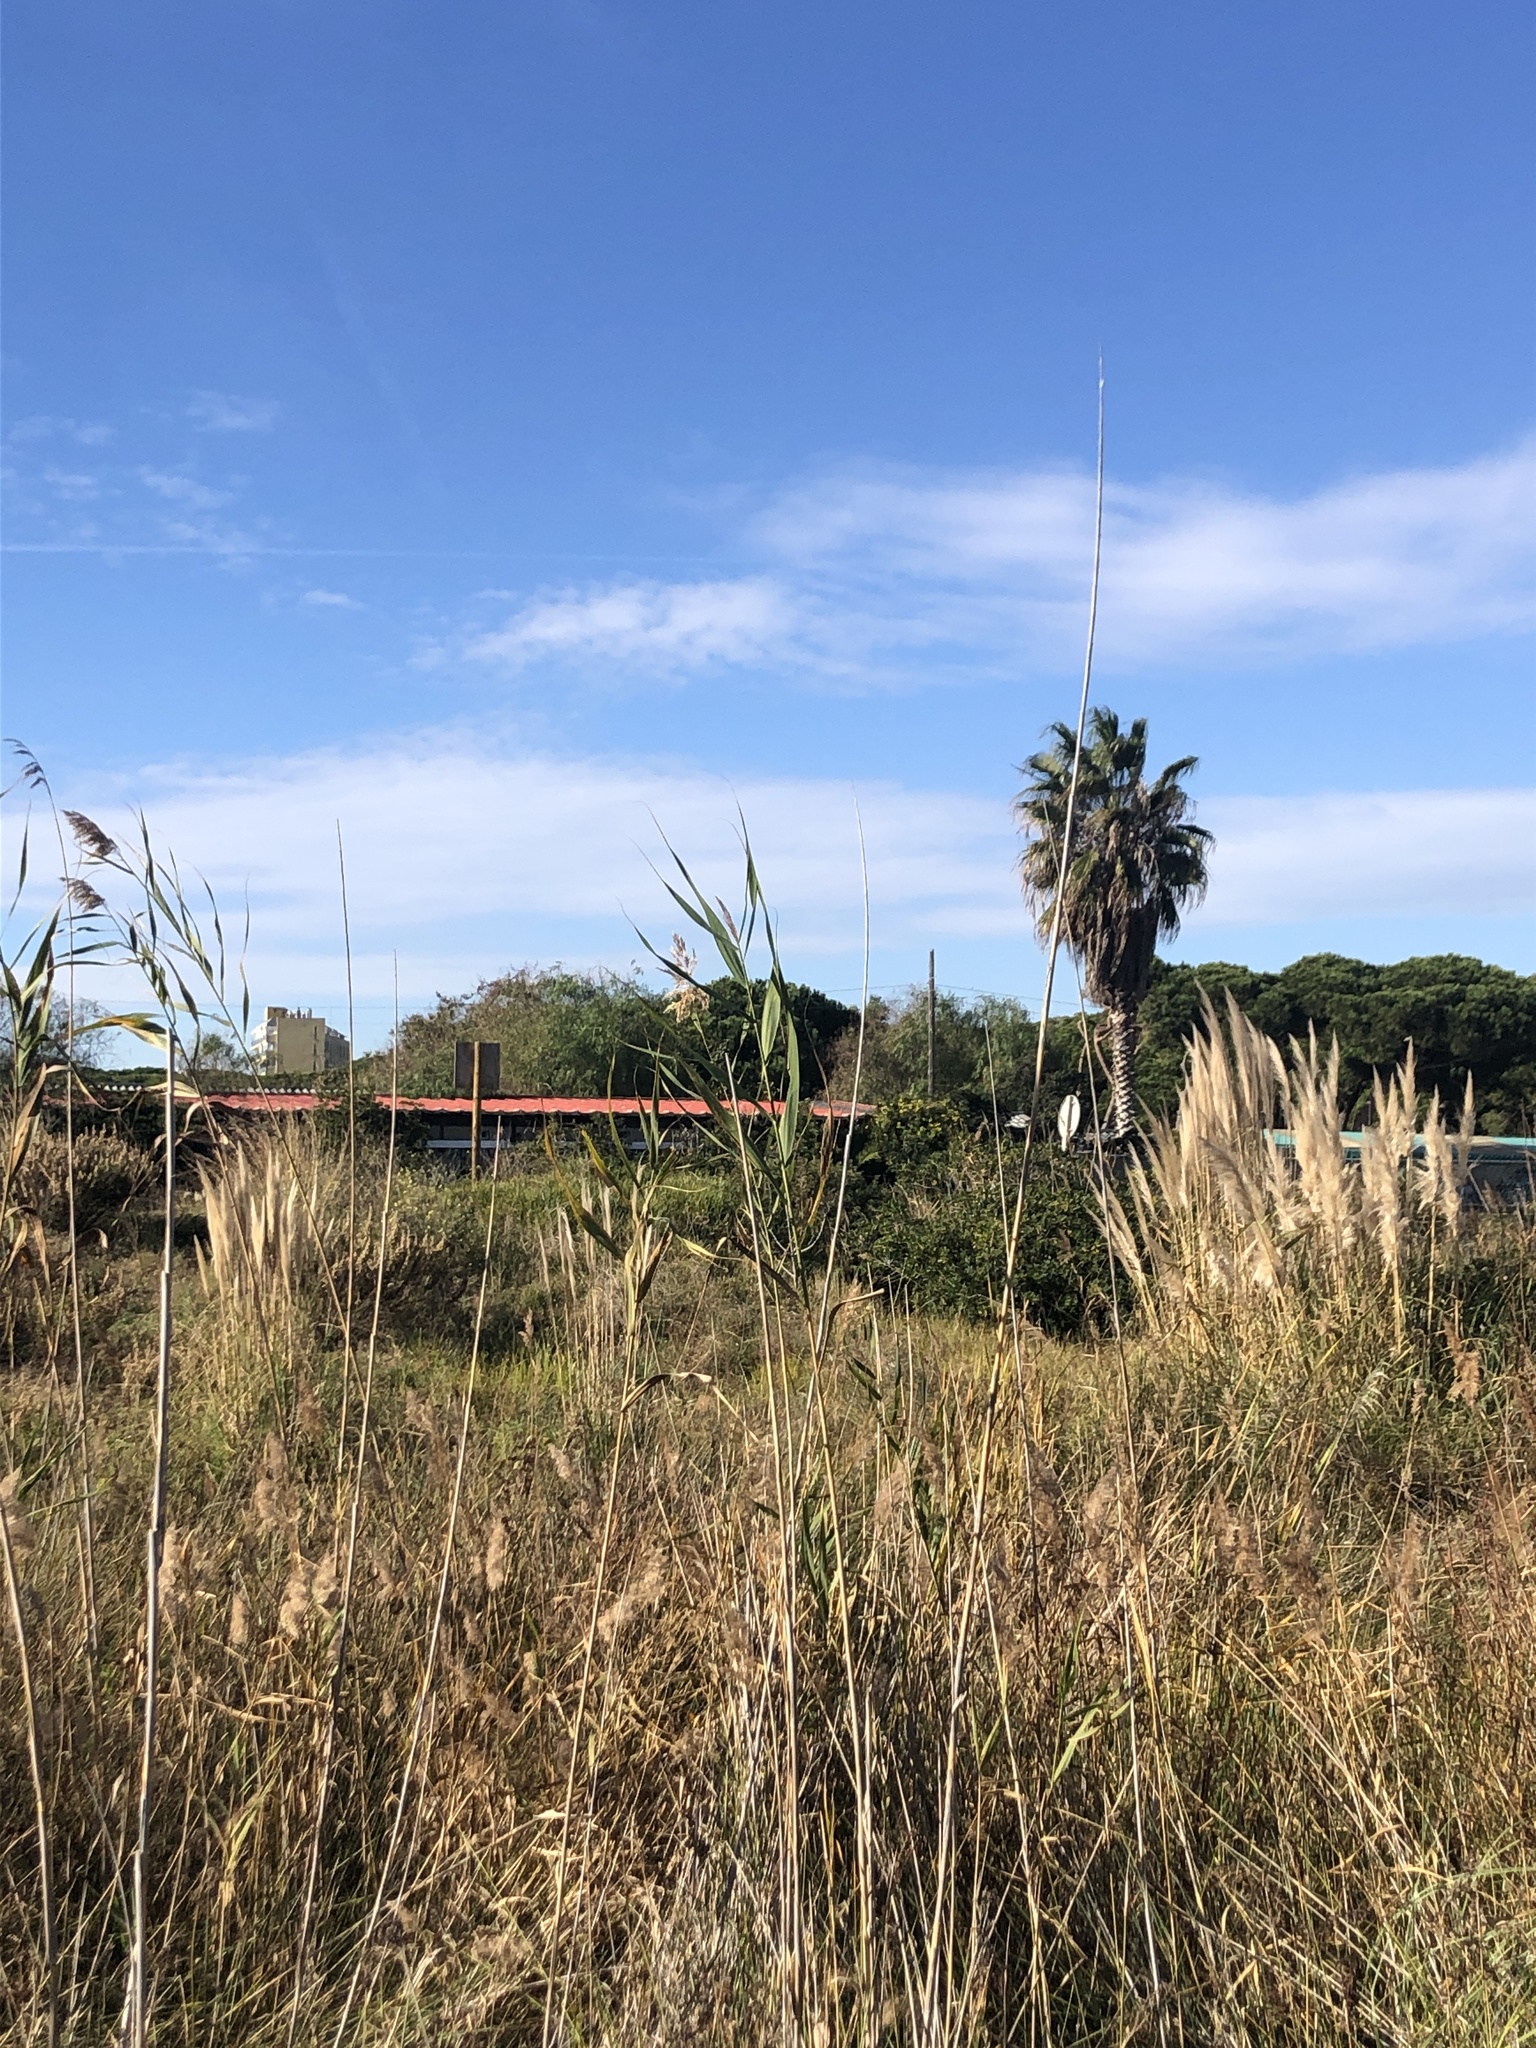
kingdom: Plantae
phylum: Tracheophyta
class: Liliopsida
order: Poales
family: Poaceae
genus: Arundo
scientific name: Arundo donax
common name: Giant reed
